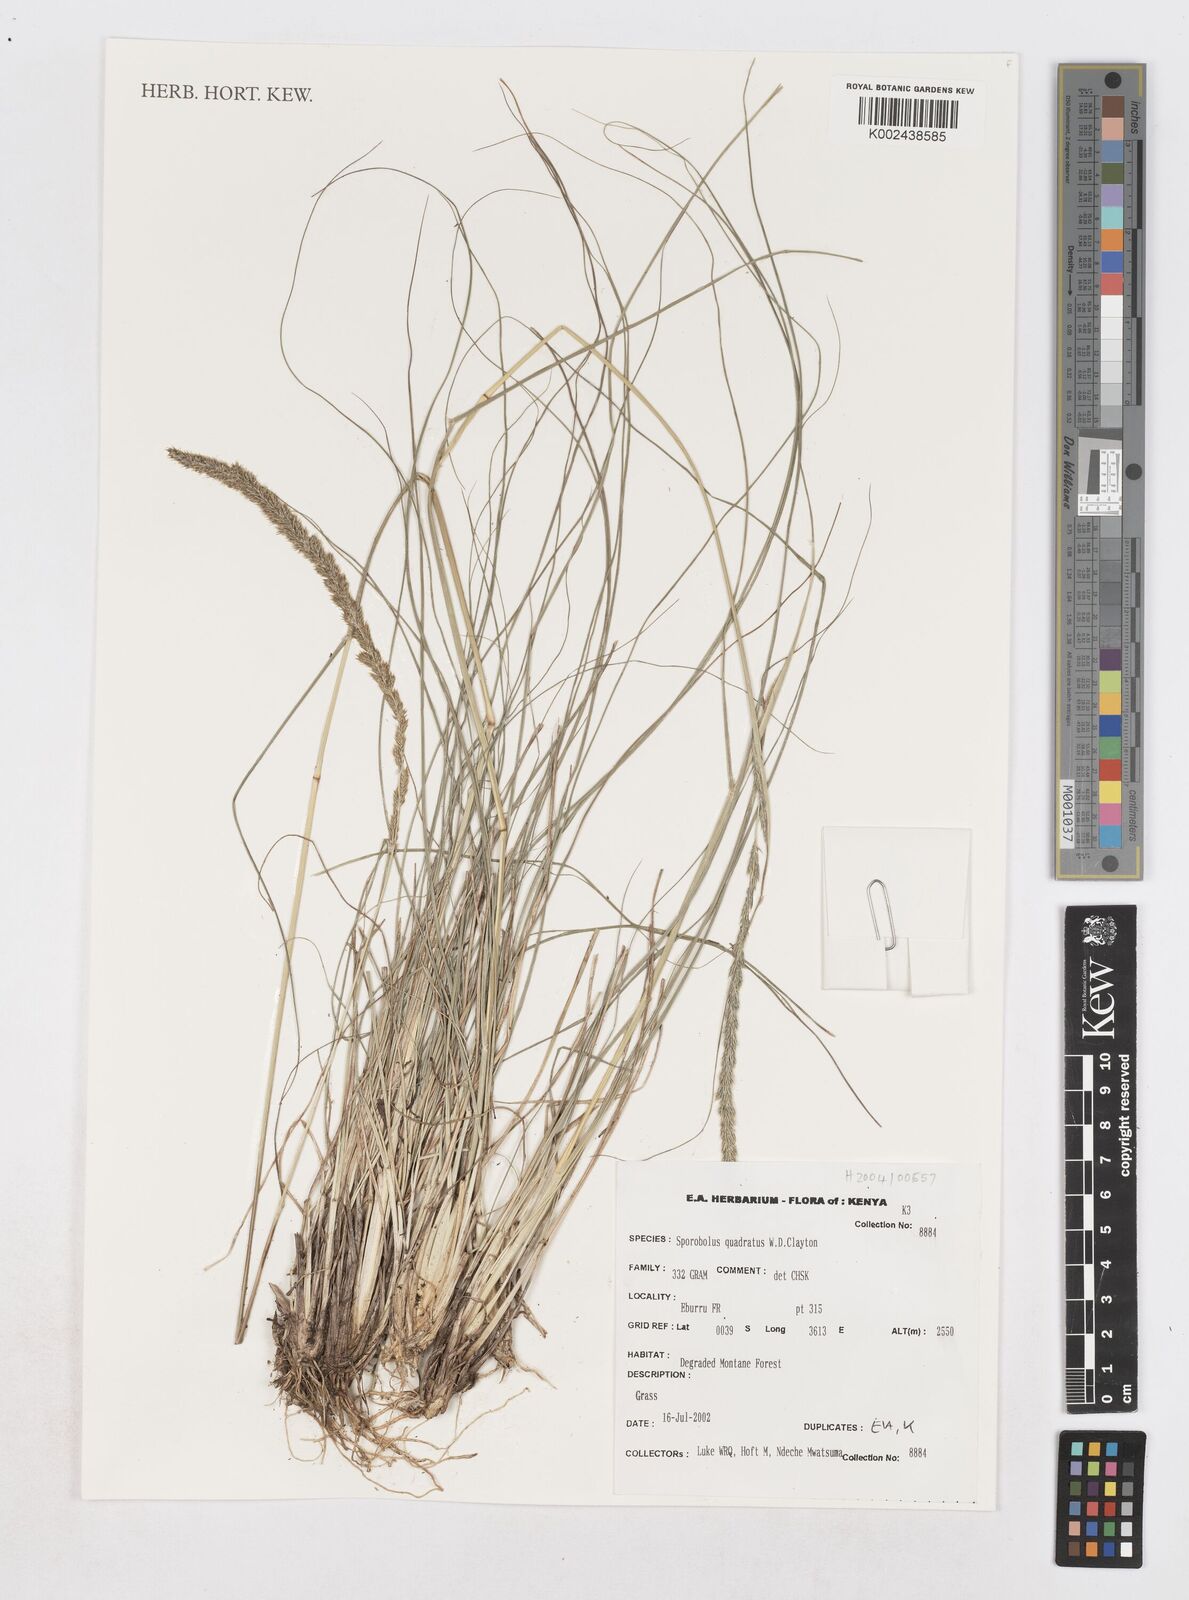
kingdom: Plantae
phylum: Tracheophyta
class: Liliopsida
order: Poales
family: Poaceae
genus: Sporobolus
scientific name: Sporobolus quadratus
